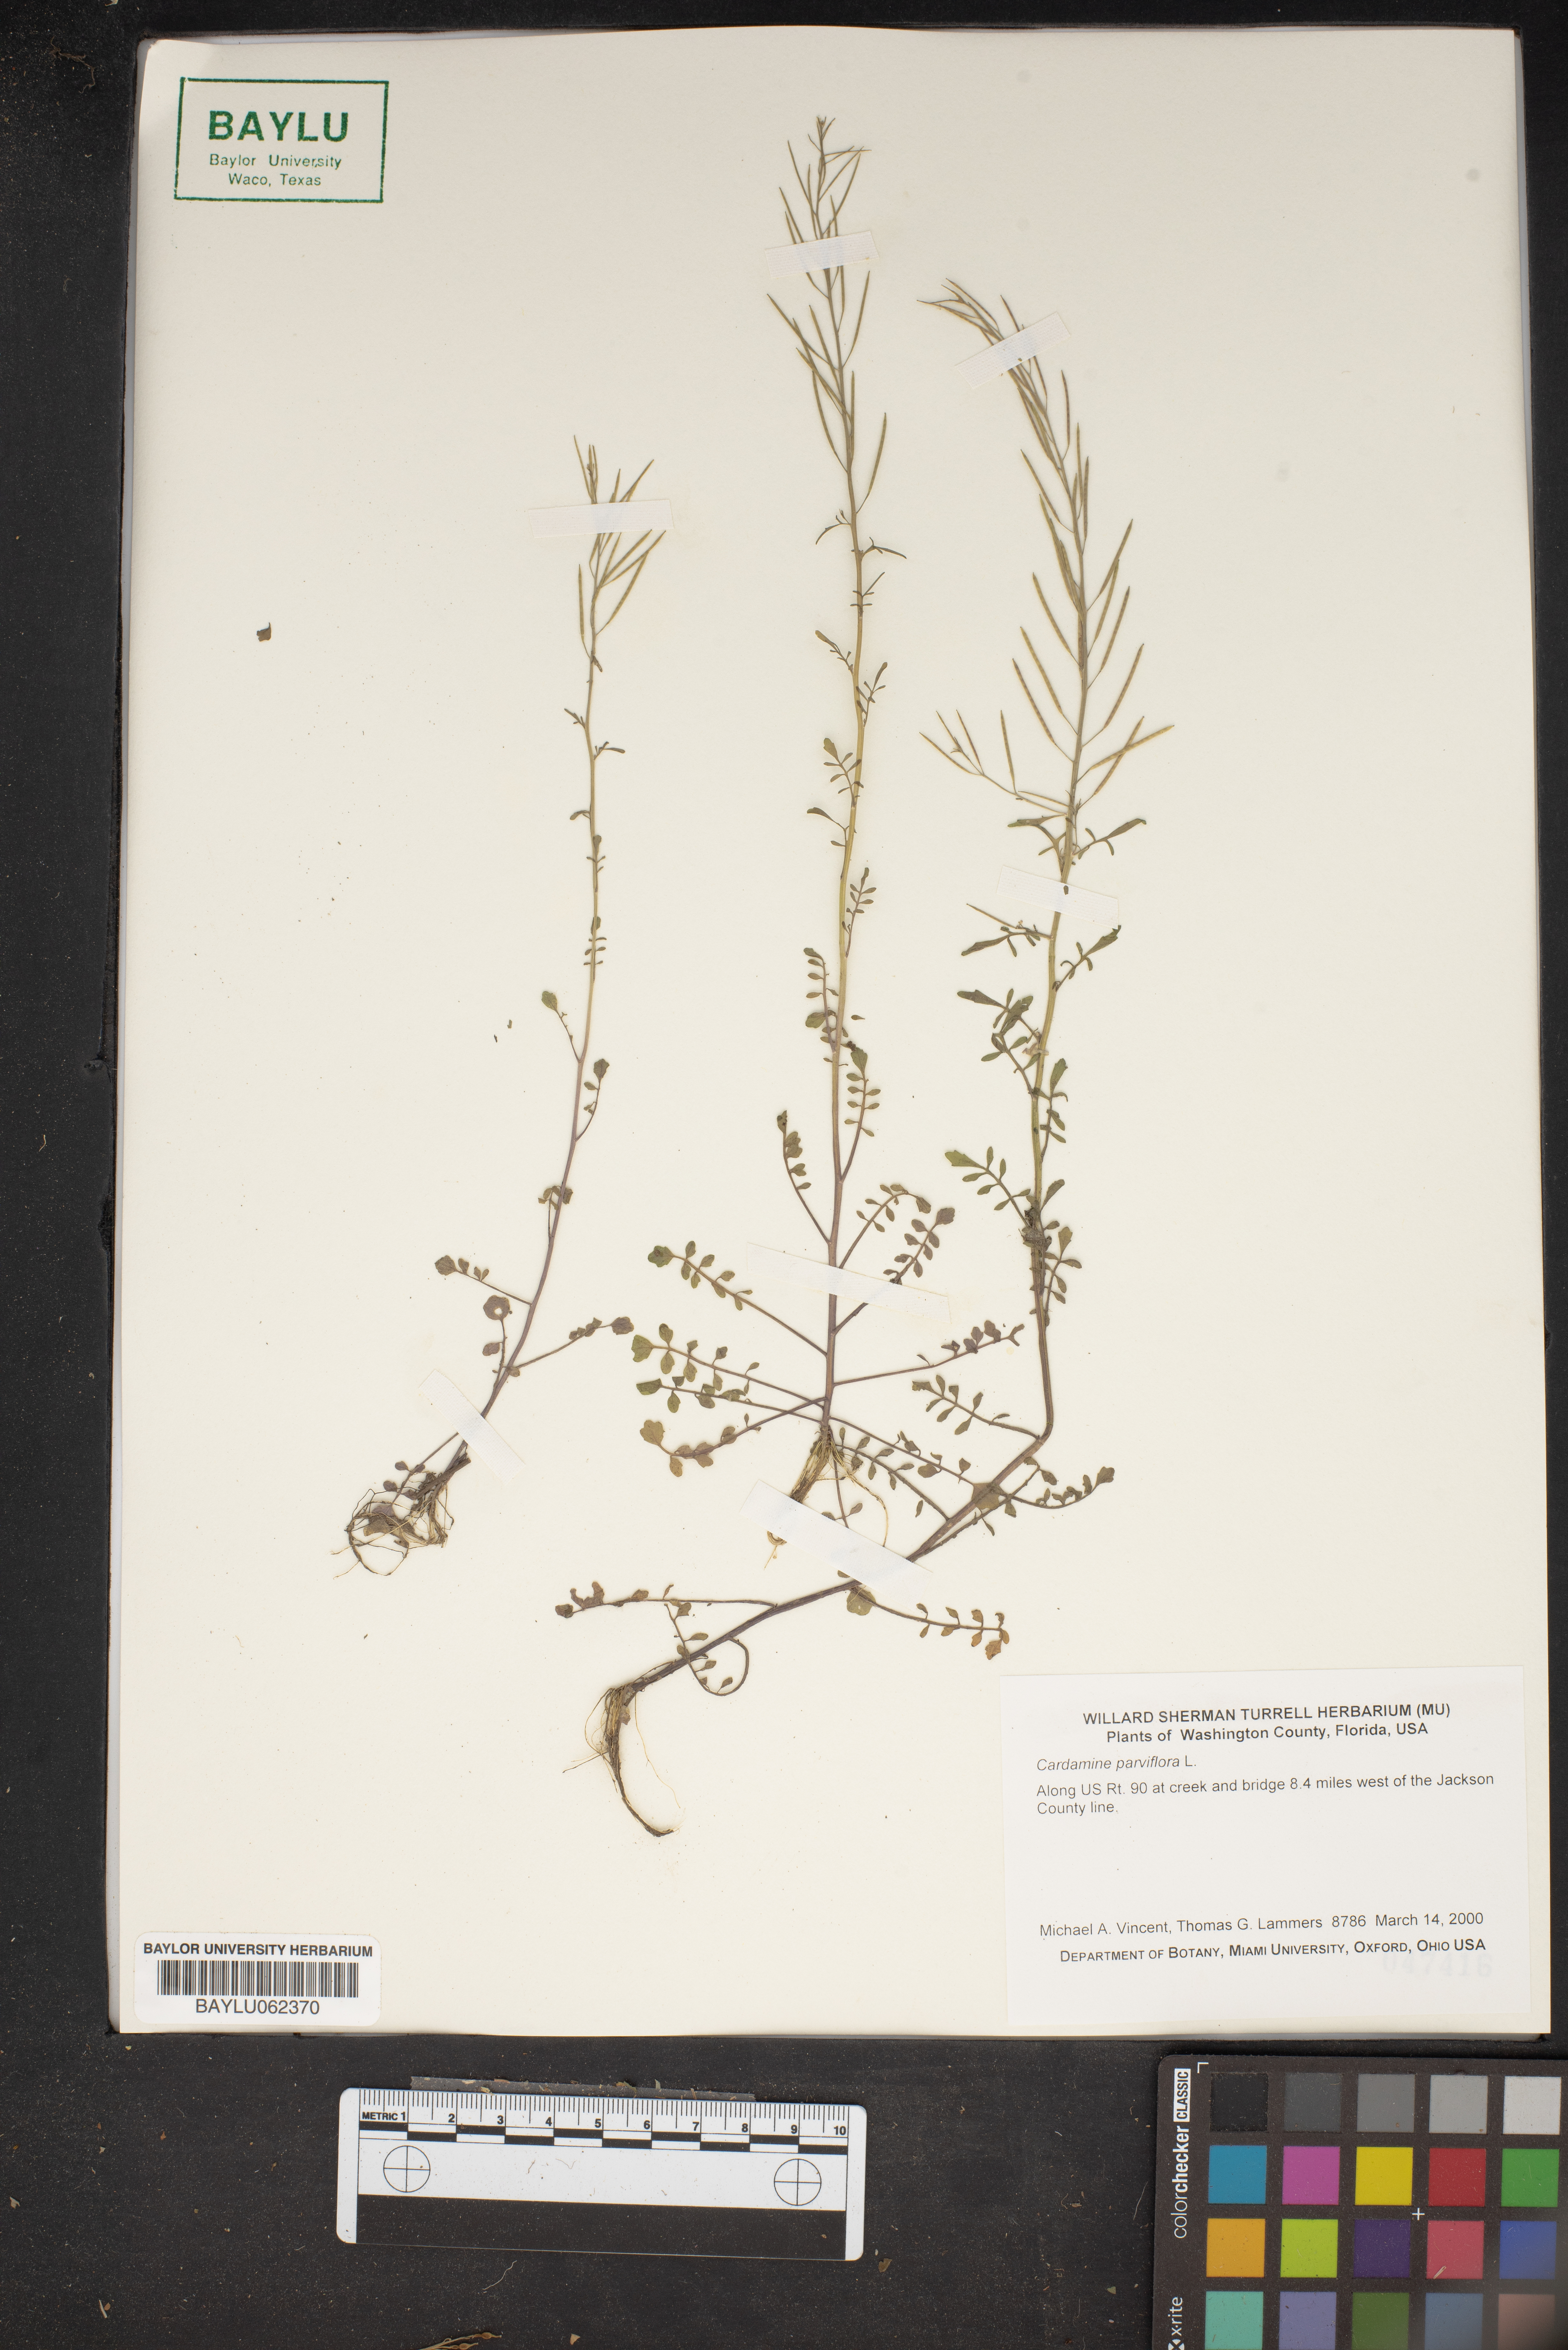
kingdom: Plantae
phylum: Tracheophyta
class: Magnoliopsida
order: Brassicales
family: Brassicaceae
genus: Cardamine
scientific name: Cardamine parviflora
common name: Sand bittercress
